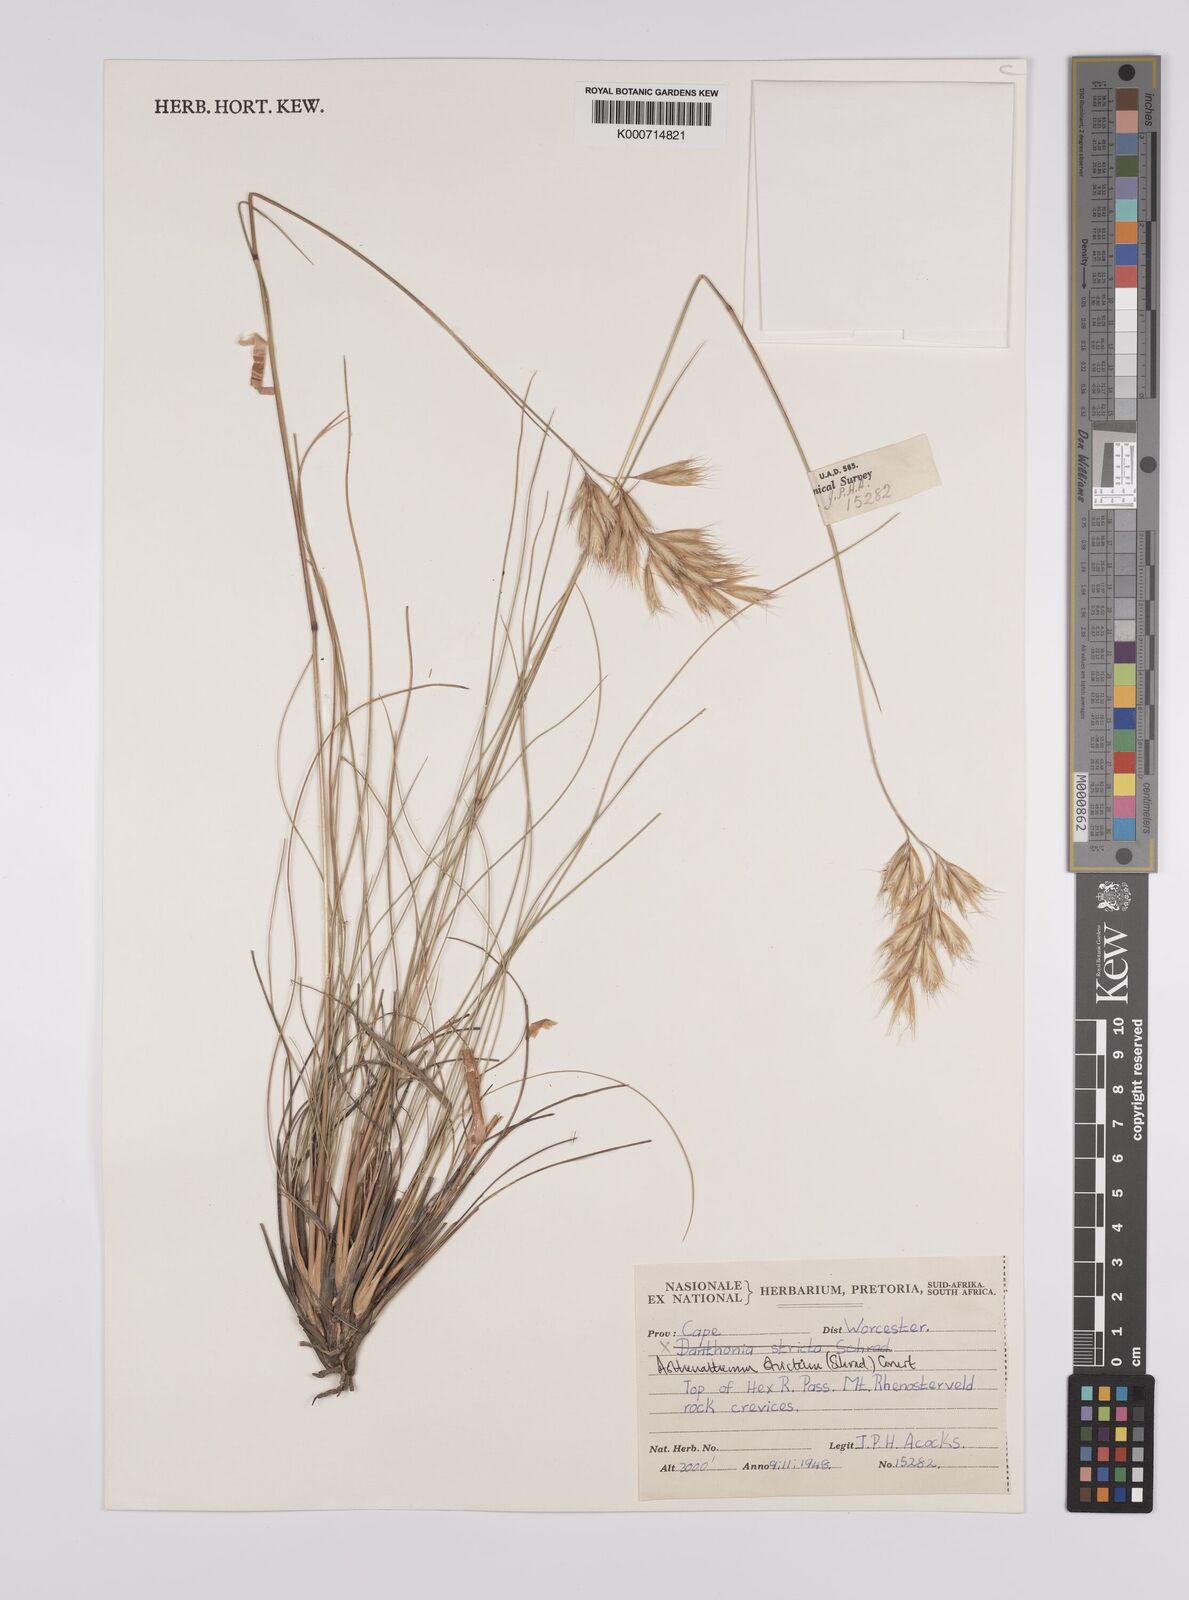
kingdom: Plantae
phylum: Tracheophyta
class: Liliopsida
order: Poales
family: Poaceae
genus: Rytidosperma
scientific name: Rytidosperma
